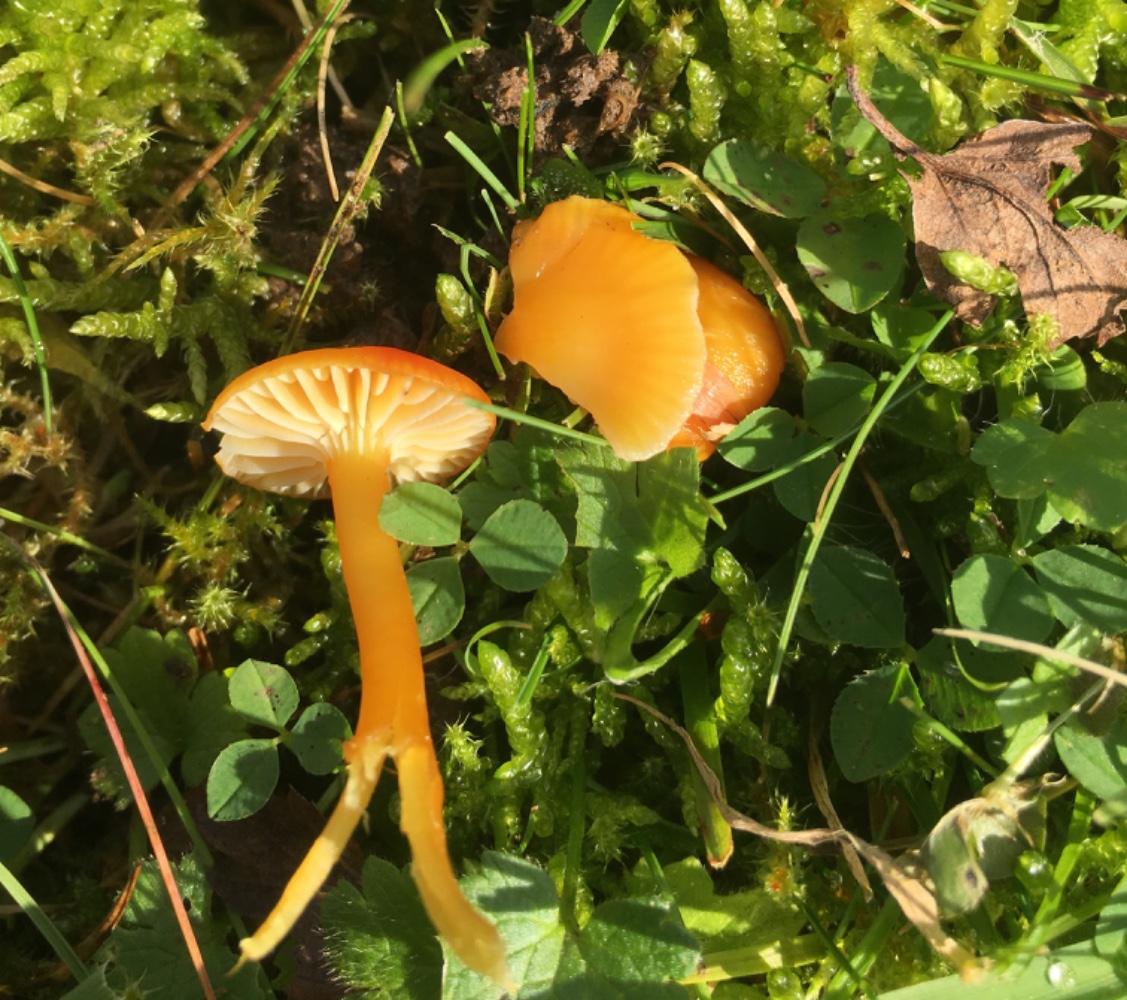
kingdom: Fungi
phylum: Basidiomycota
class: Agaricomycetes
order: Agaricales
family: Hygrophoraceae
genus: Hygrocybe
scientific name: Hygrocybe ceracea
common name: voksgul vokshat
